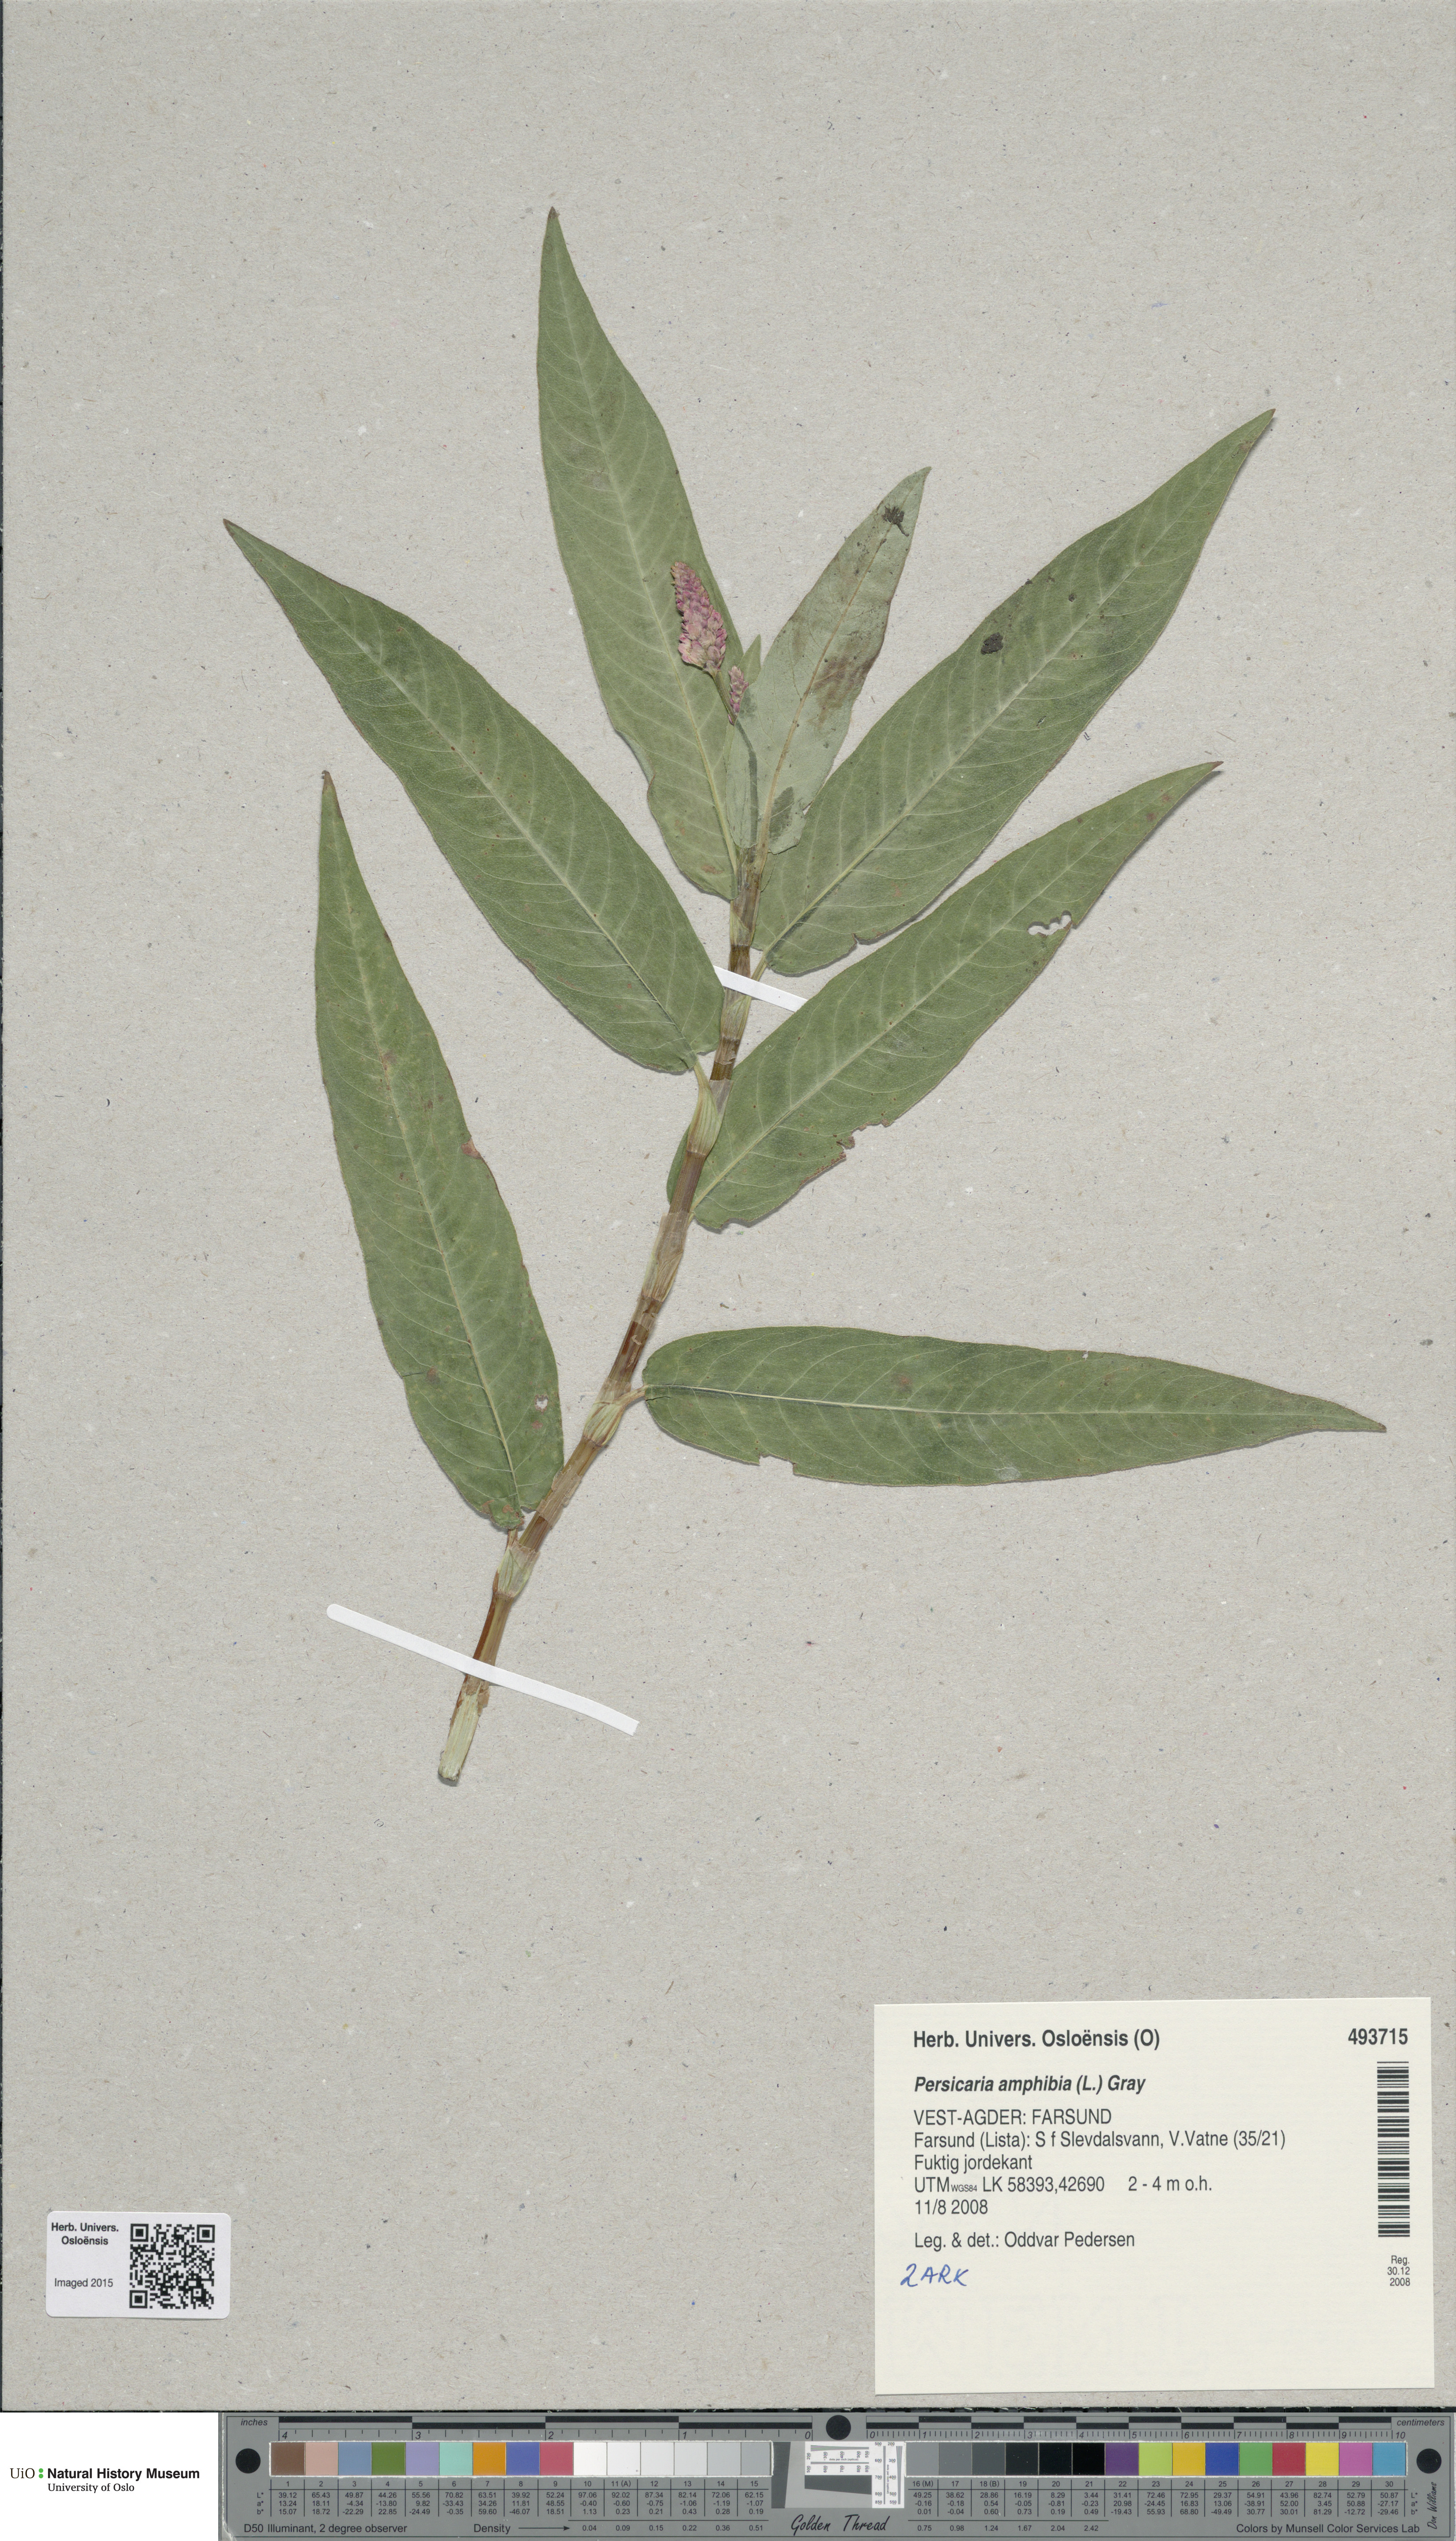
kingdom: Plantae
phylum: Tracheophyta
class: Magnoliopsida
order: Caryophyllales
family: Polygonaceae
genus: Persicaria
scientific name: Persicaria amphibia
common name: Amphibious bistort
